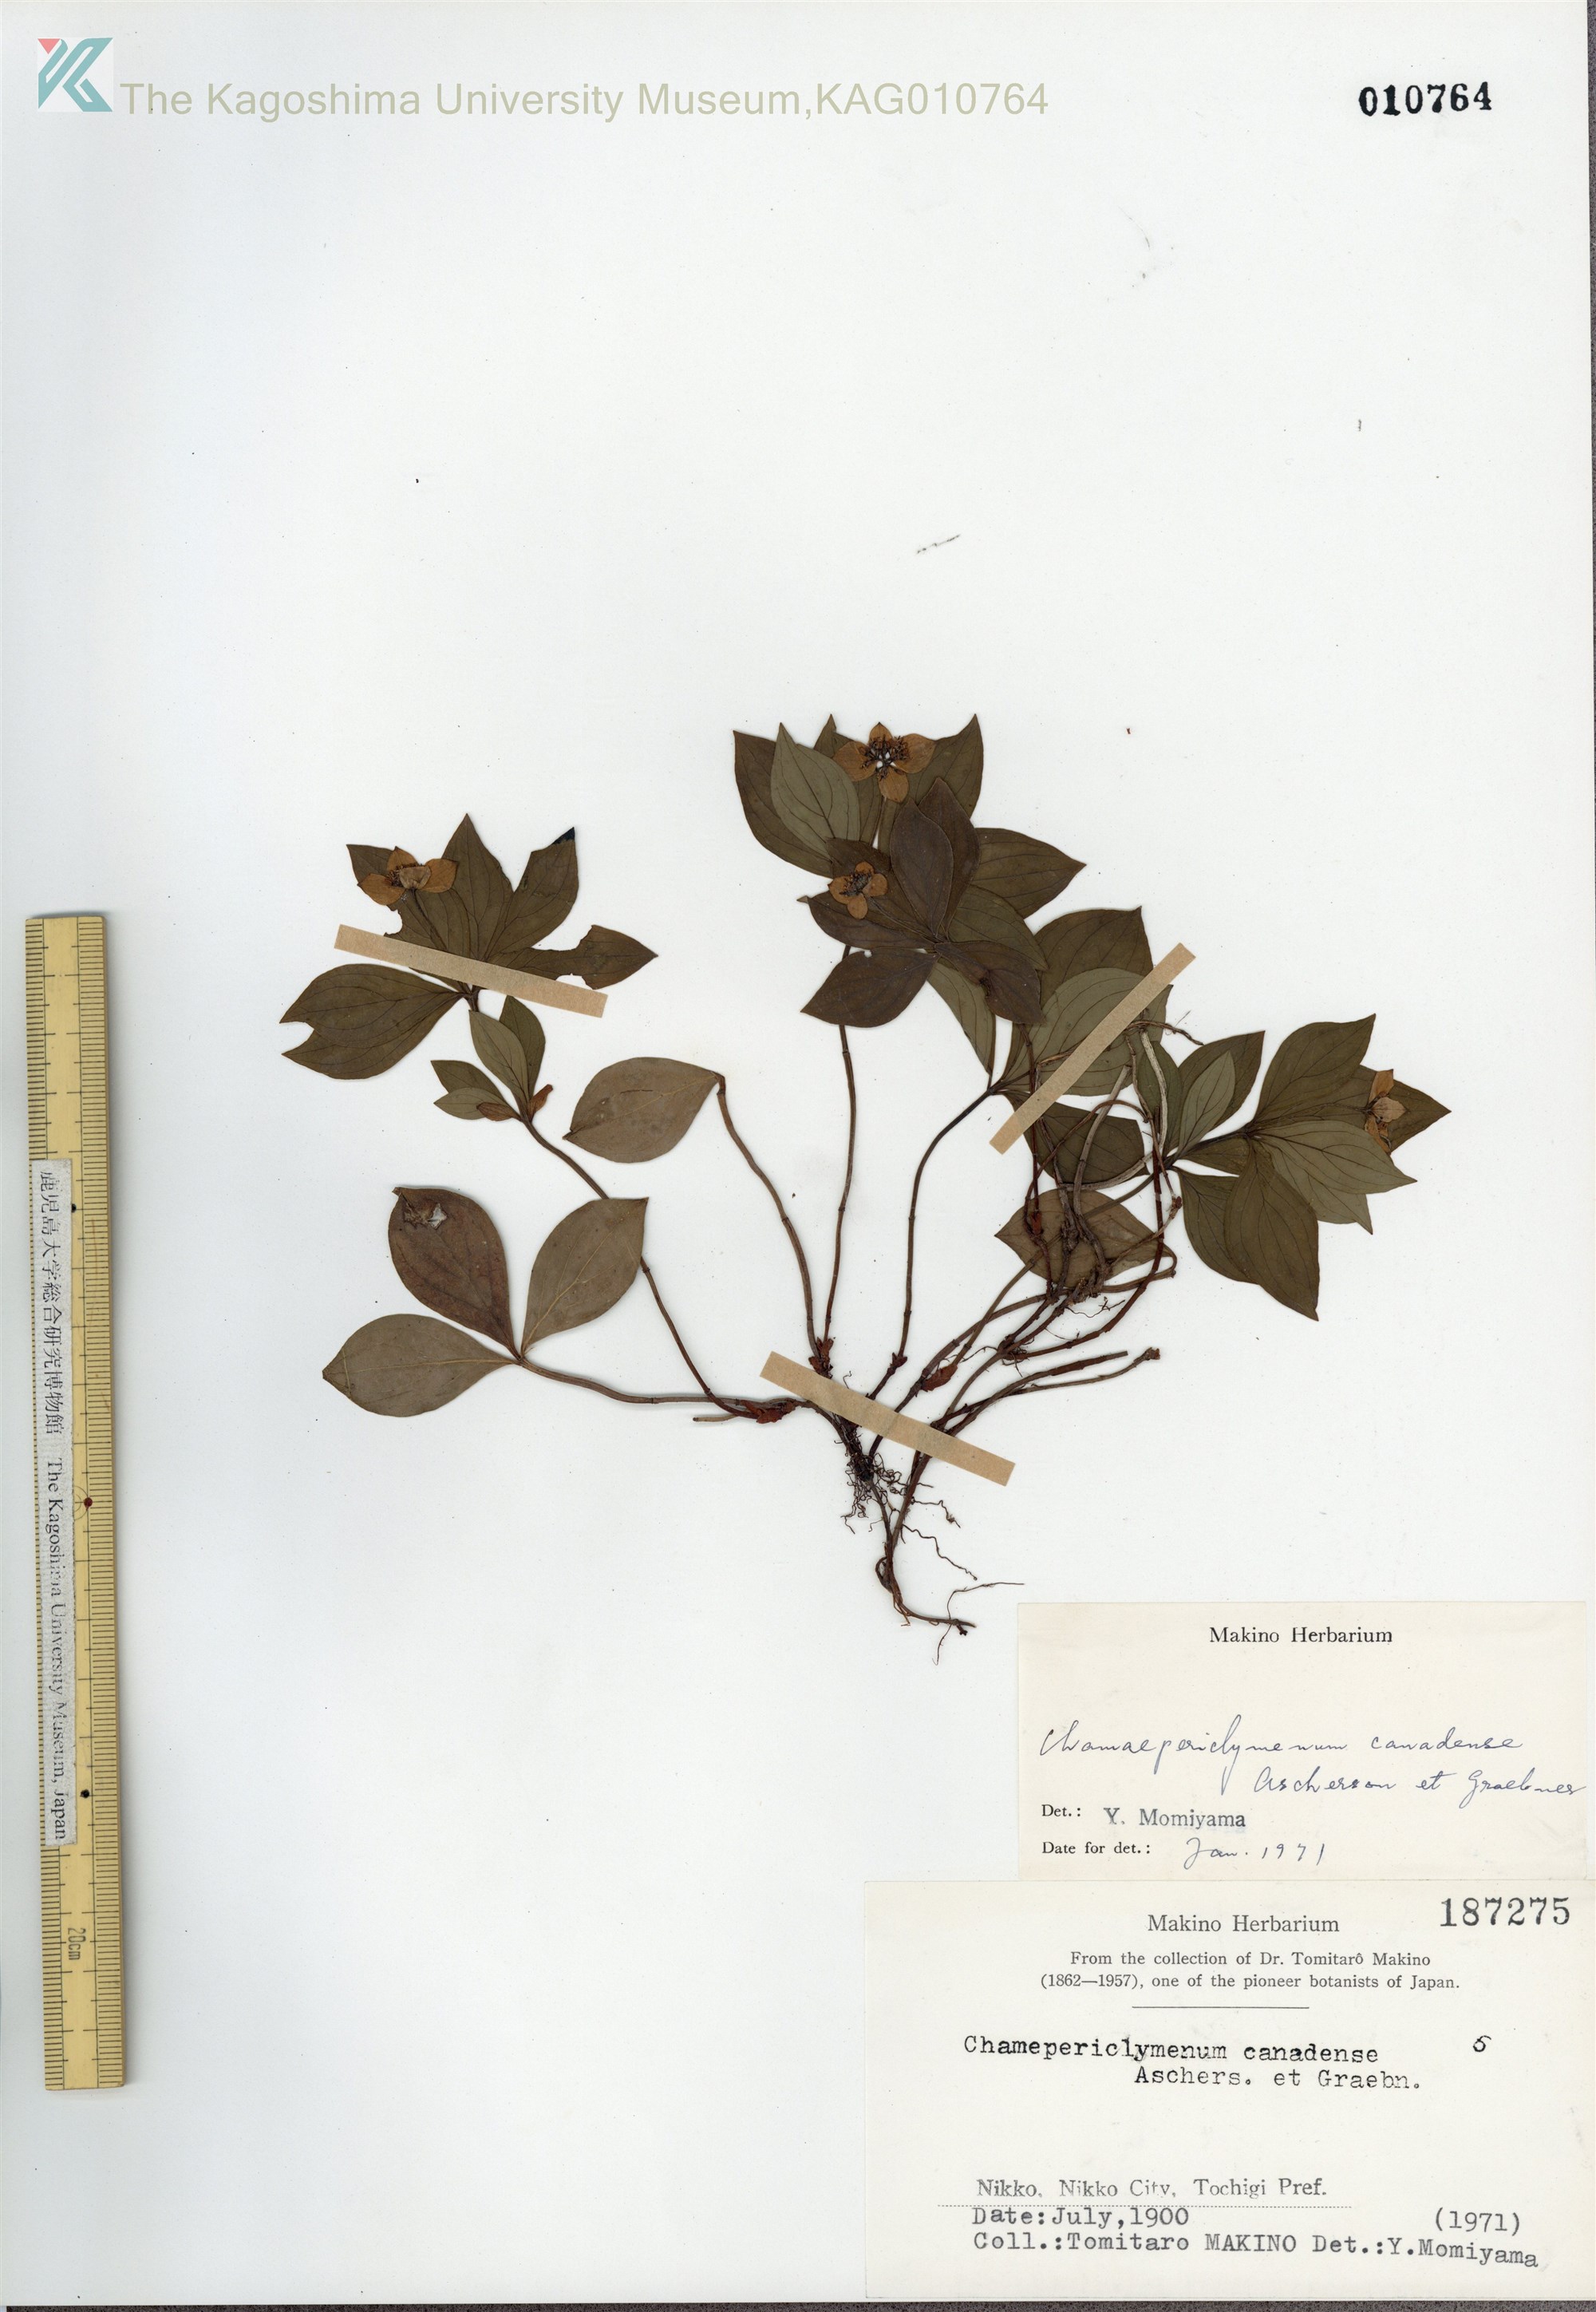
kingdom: Plantae
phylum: Tracheophyta
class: Magnoliopsida
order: Cornales
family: Cornaceae
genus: Cornus
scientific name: Cornus canadensis
